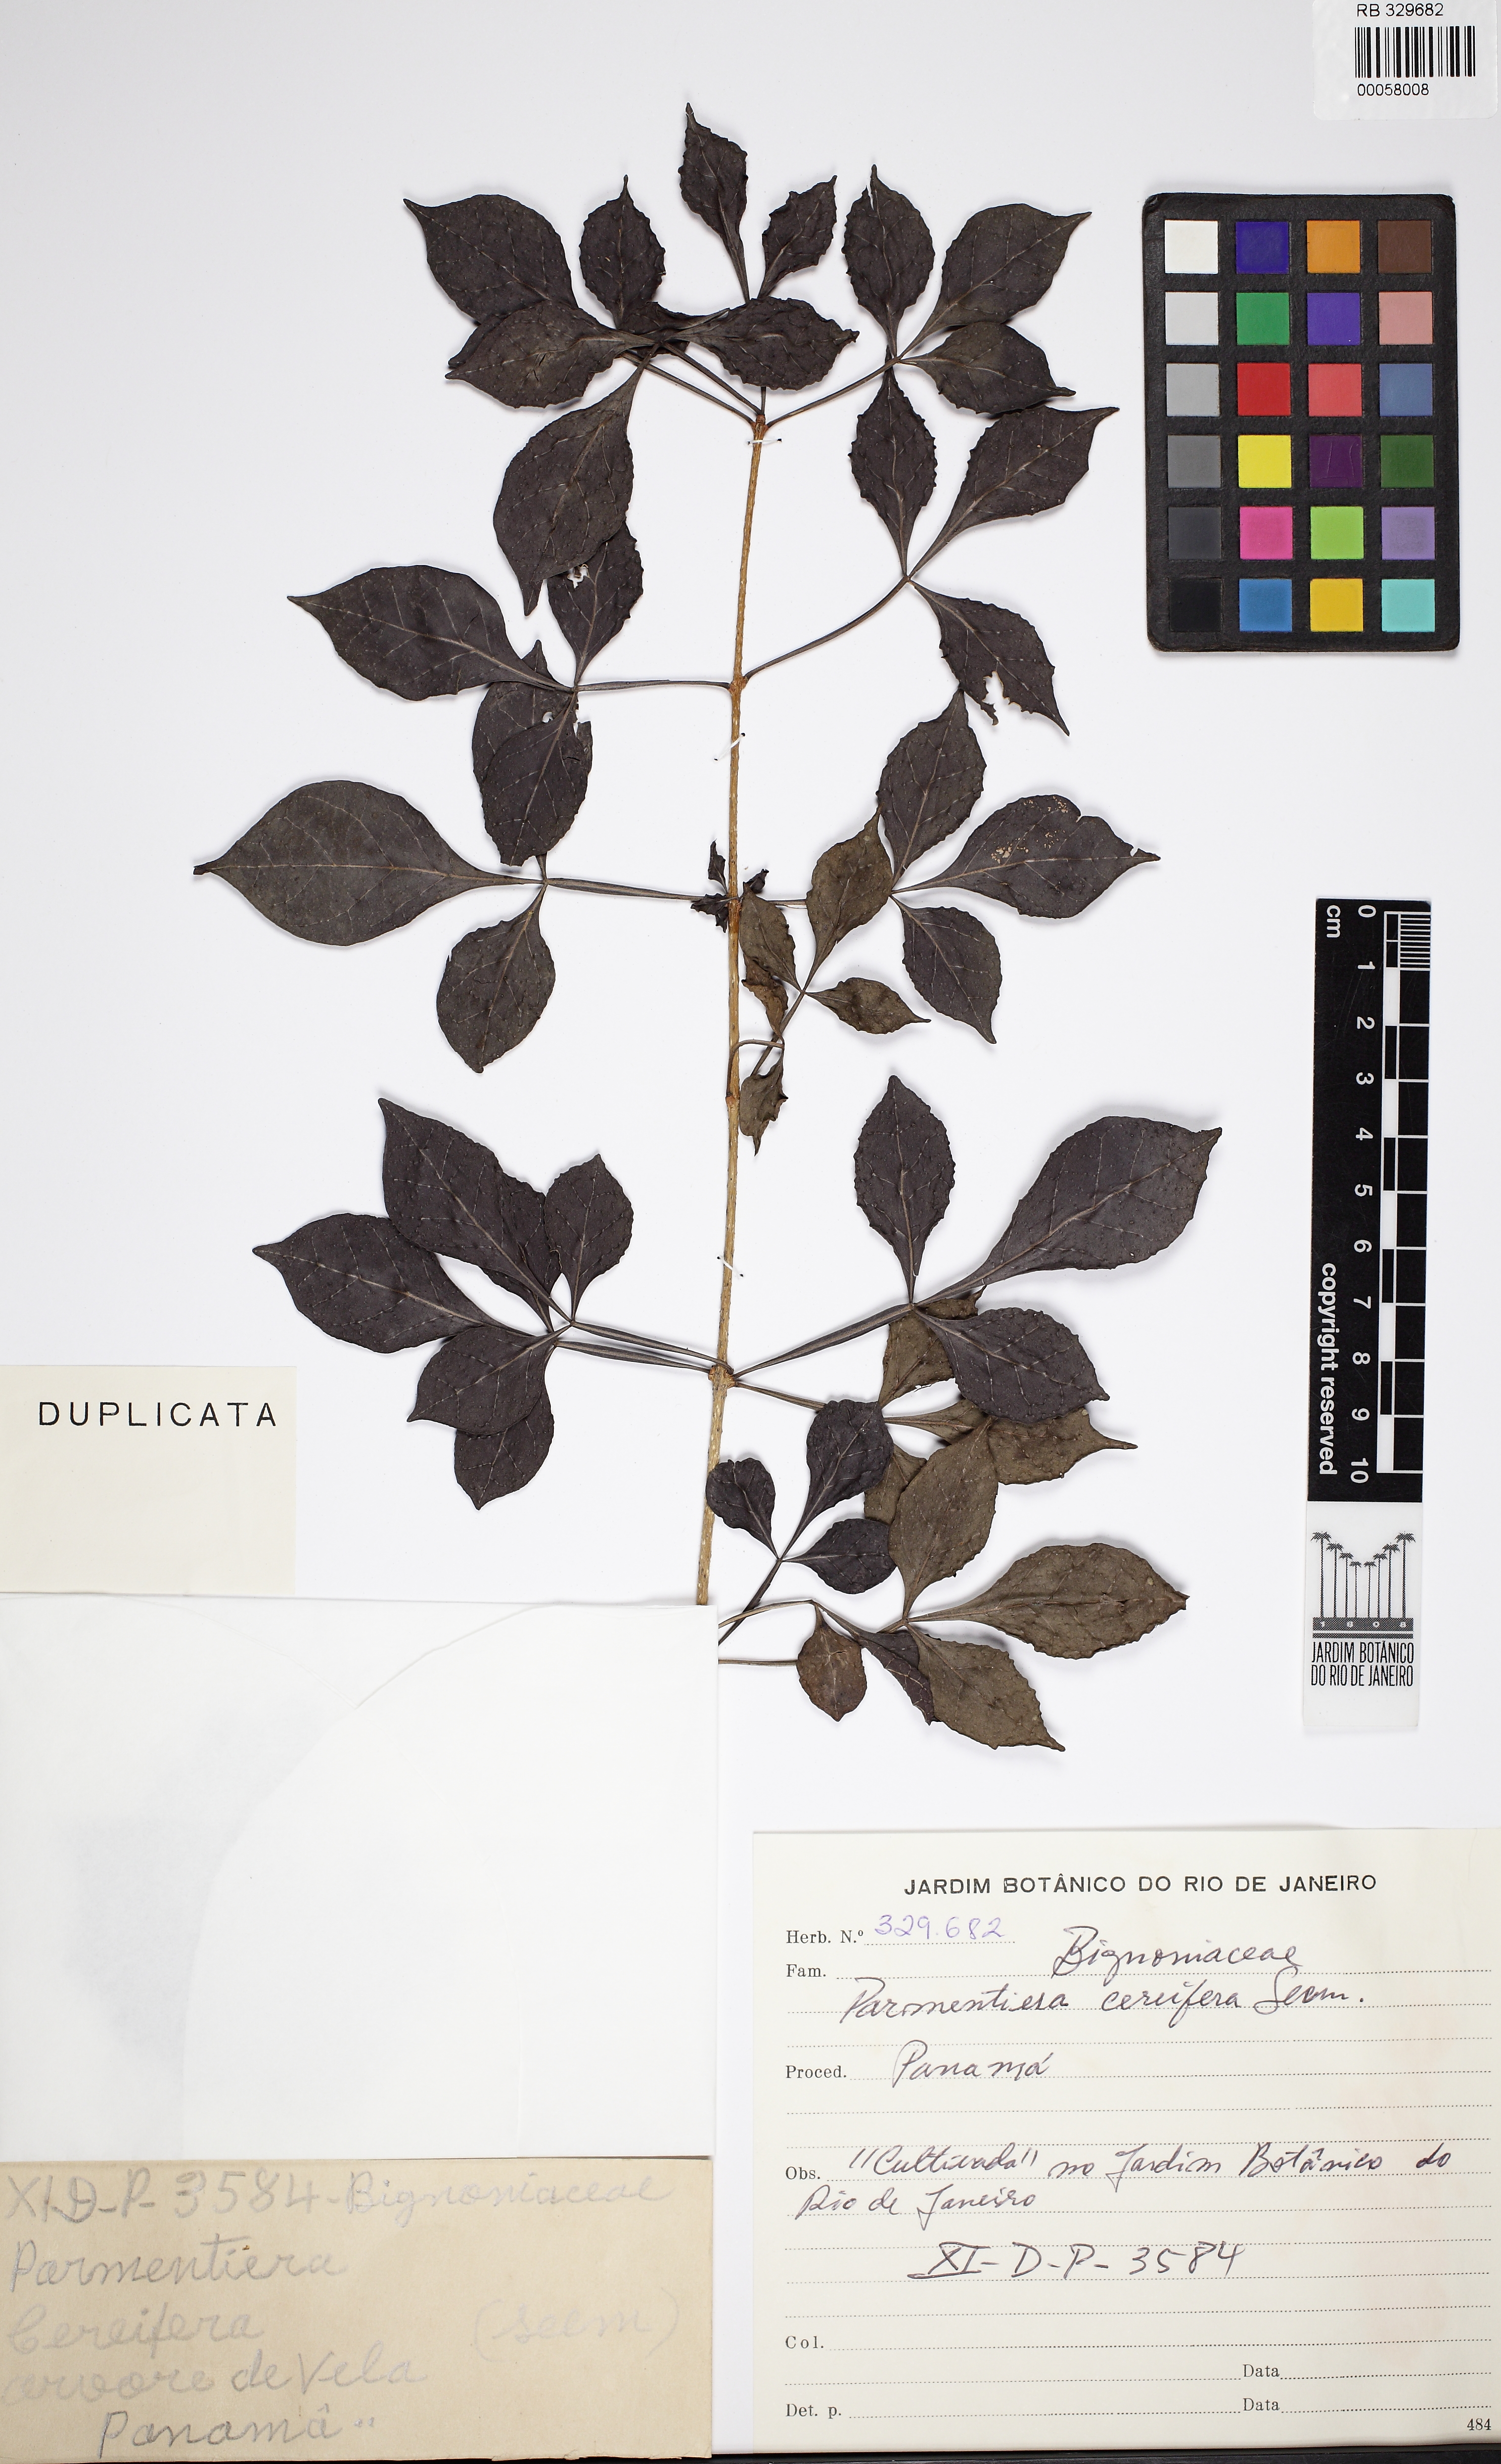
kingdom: Plantae
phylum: Tracheophyta
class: Magnoliopsida
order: Lamiales
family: Bignoniaceae
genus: Parmentiera
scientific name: Parmentiera cereifera
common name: Candletree
